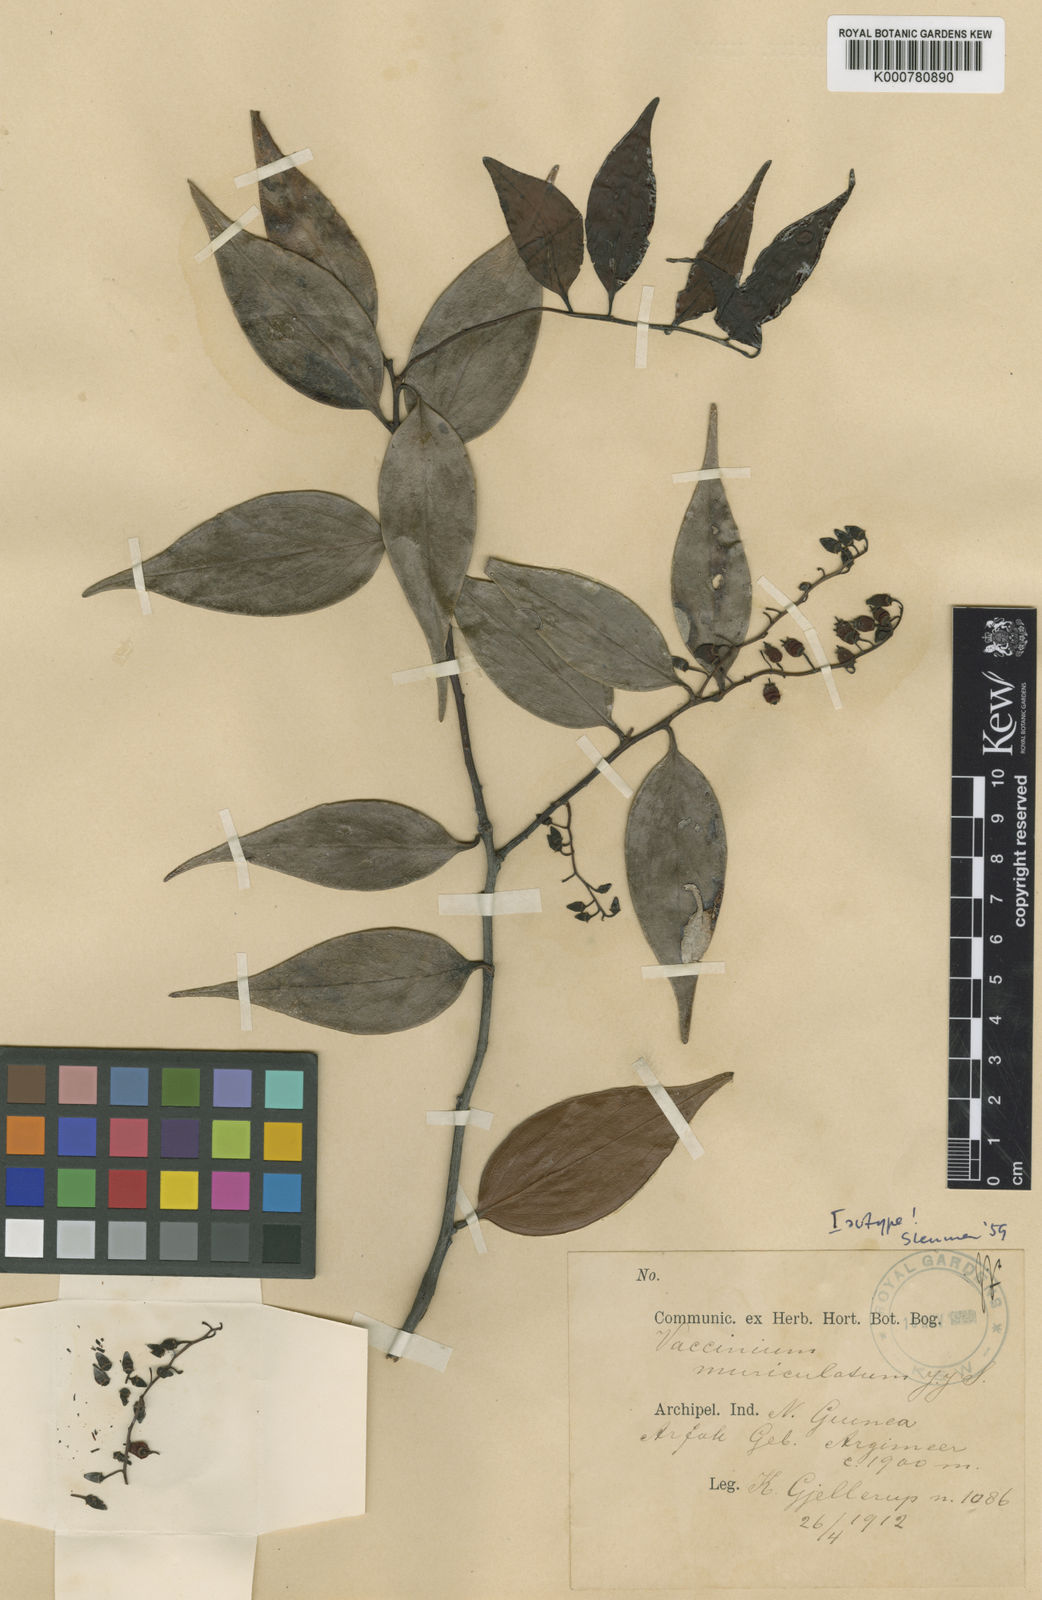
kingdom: Plantae
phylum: Tracheophyta
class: Magnoliopsida
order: Ericales
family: Ericaceae
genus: Vaccinium
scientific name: Vaccinium muriculatum
